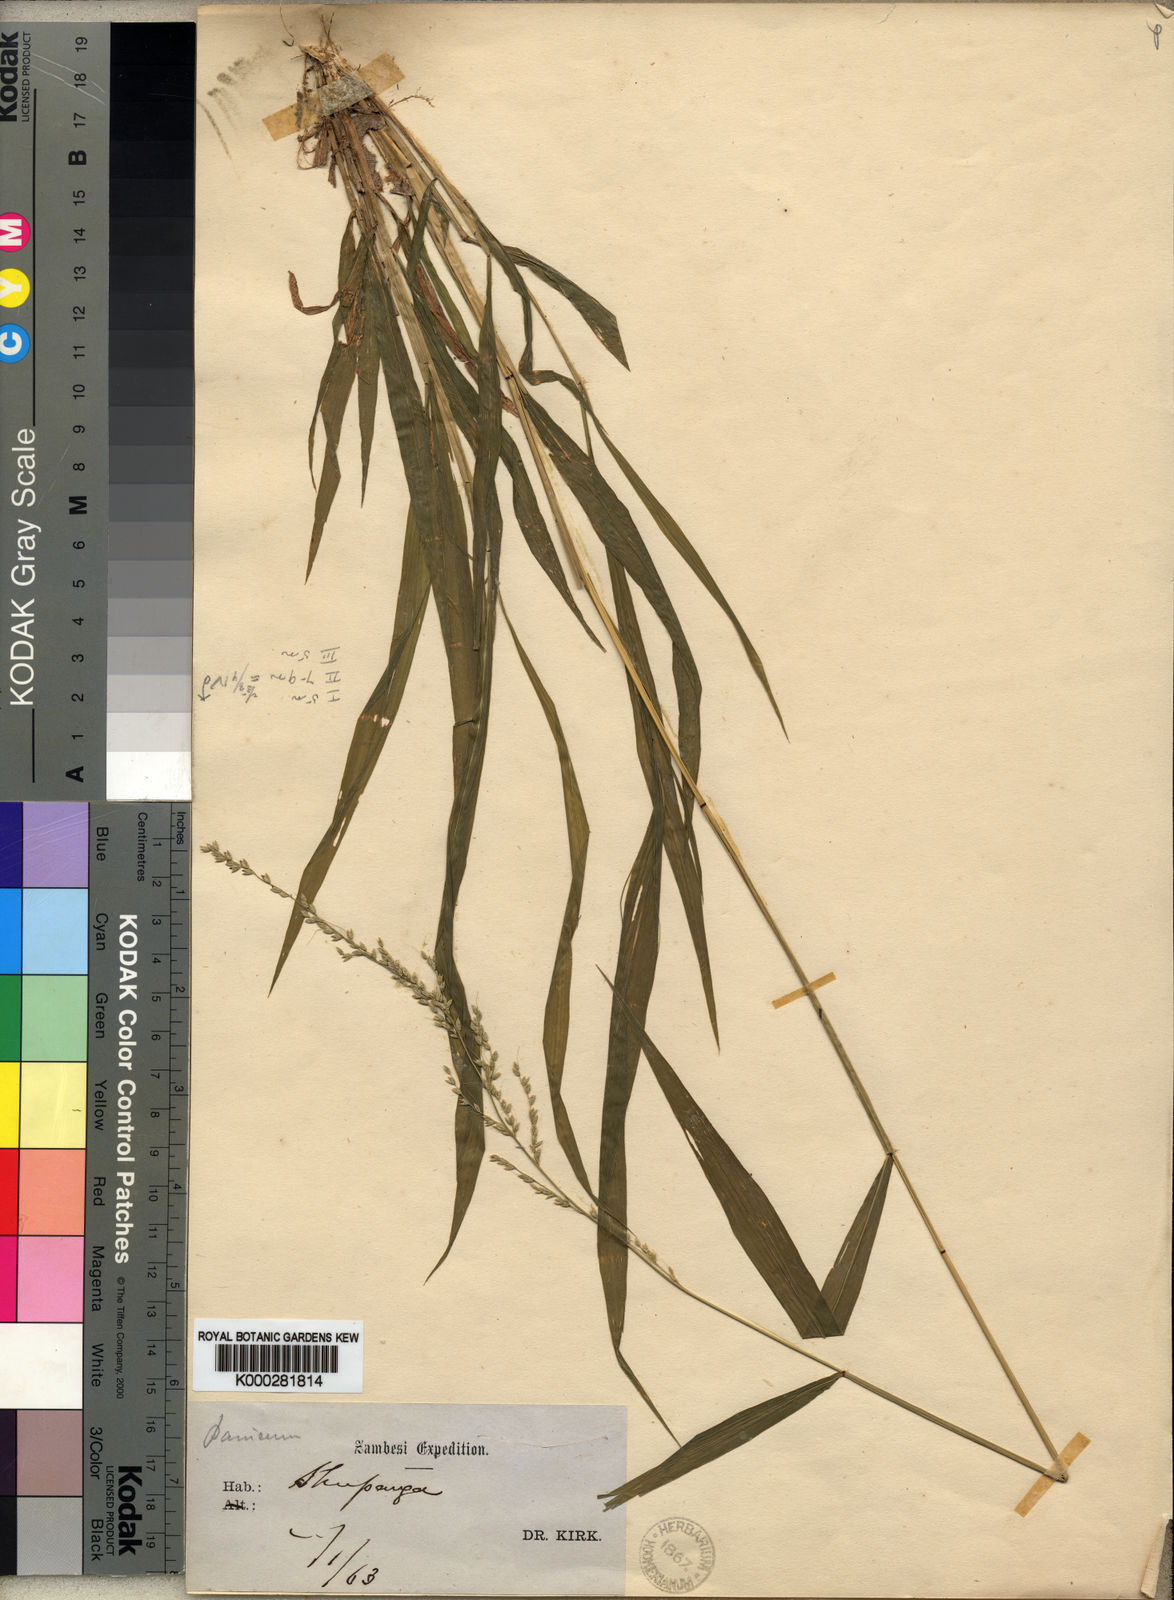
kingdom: Plantae
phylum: Tracheophyta
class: Liliopsida
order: Poales
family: Poaceae
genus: Setaria
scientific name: Setaria barbata
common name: East indian bristlegrass
